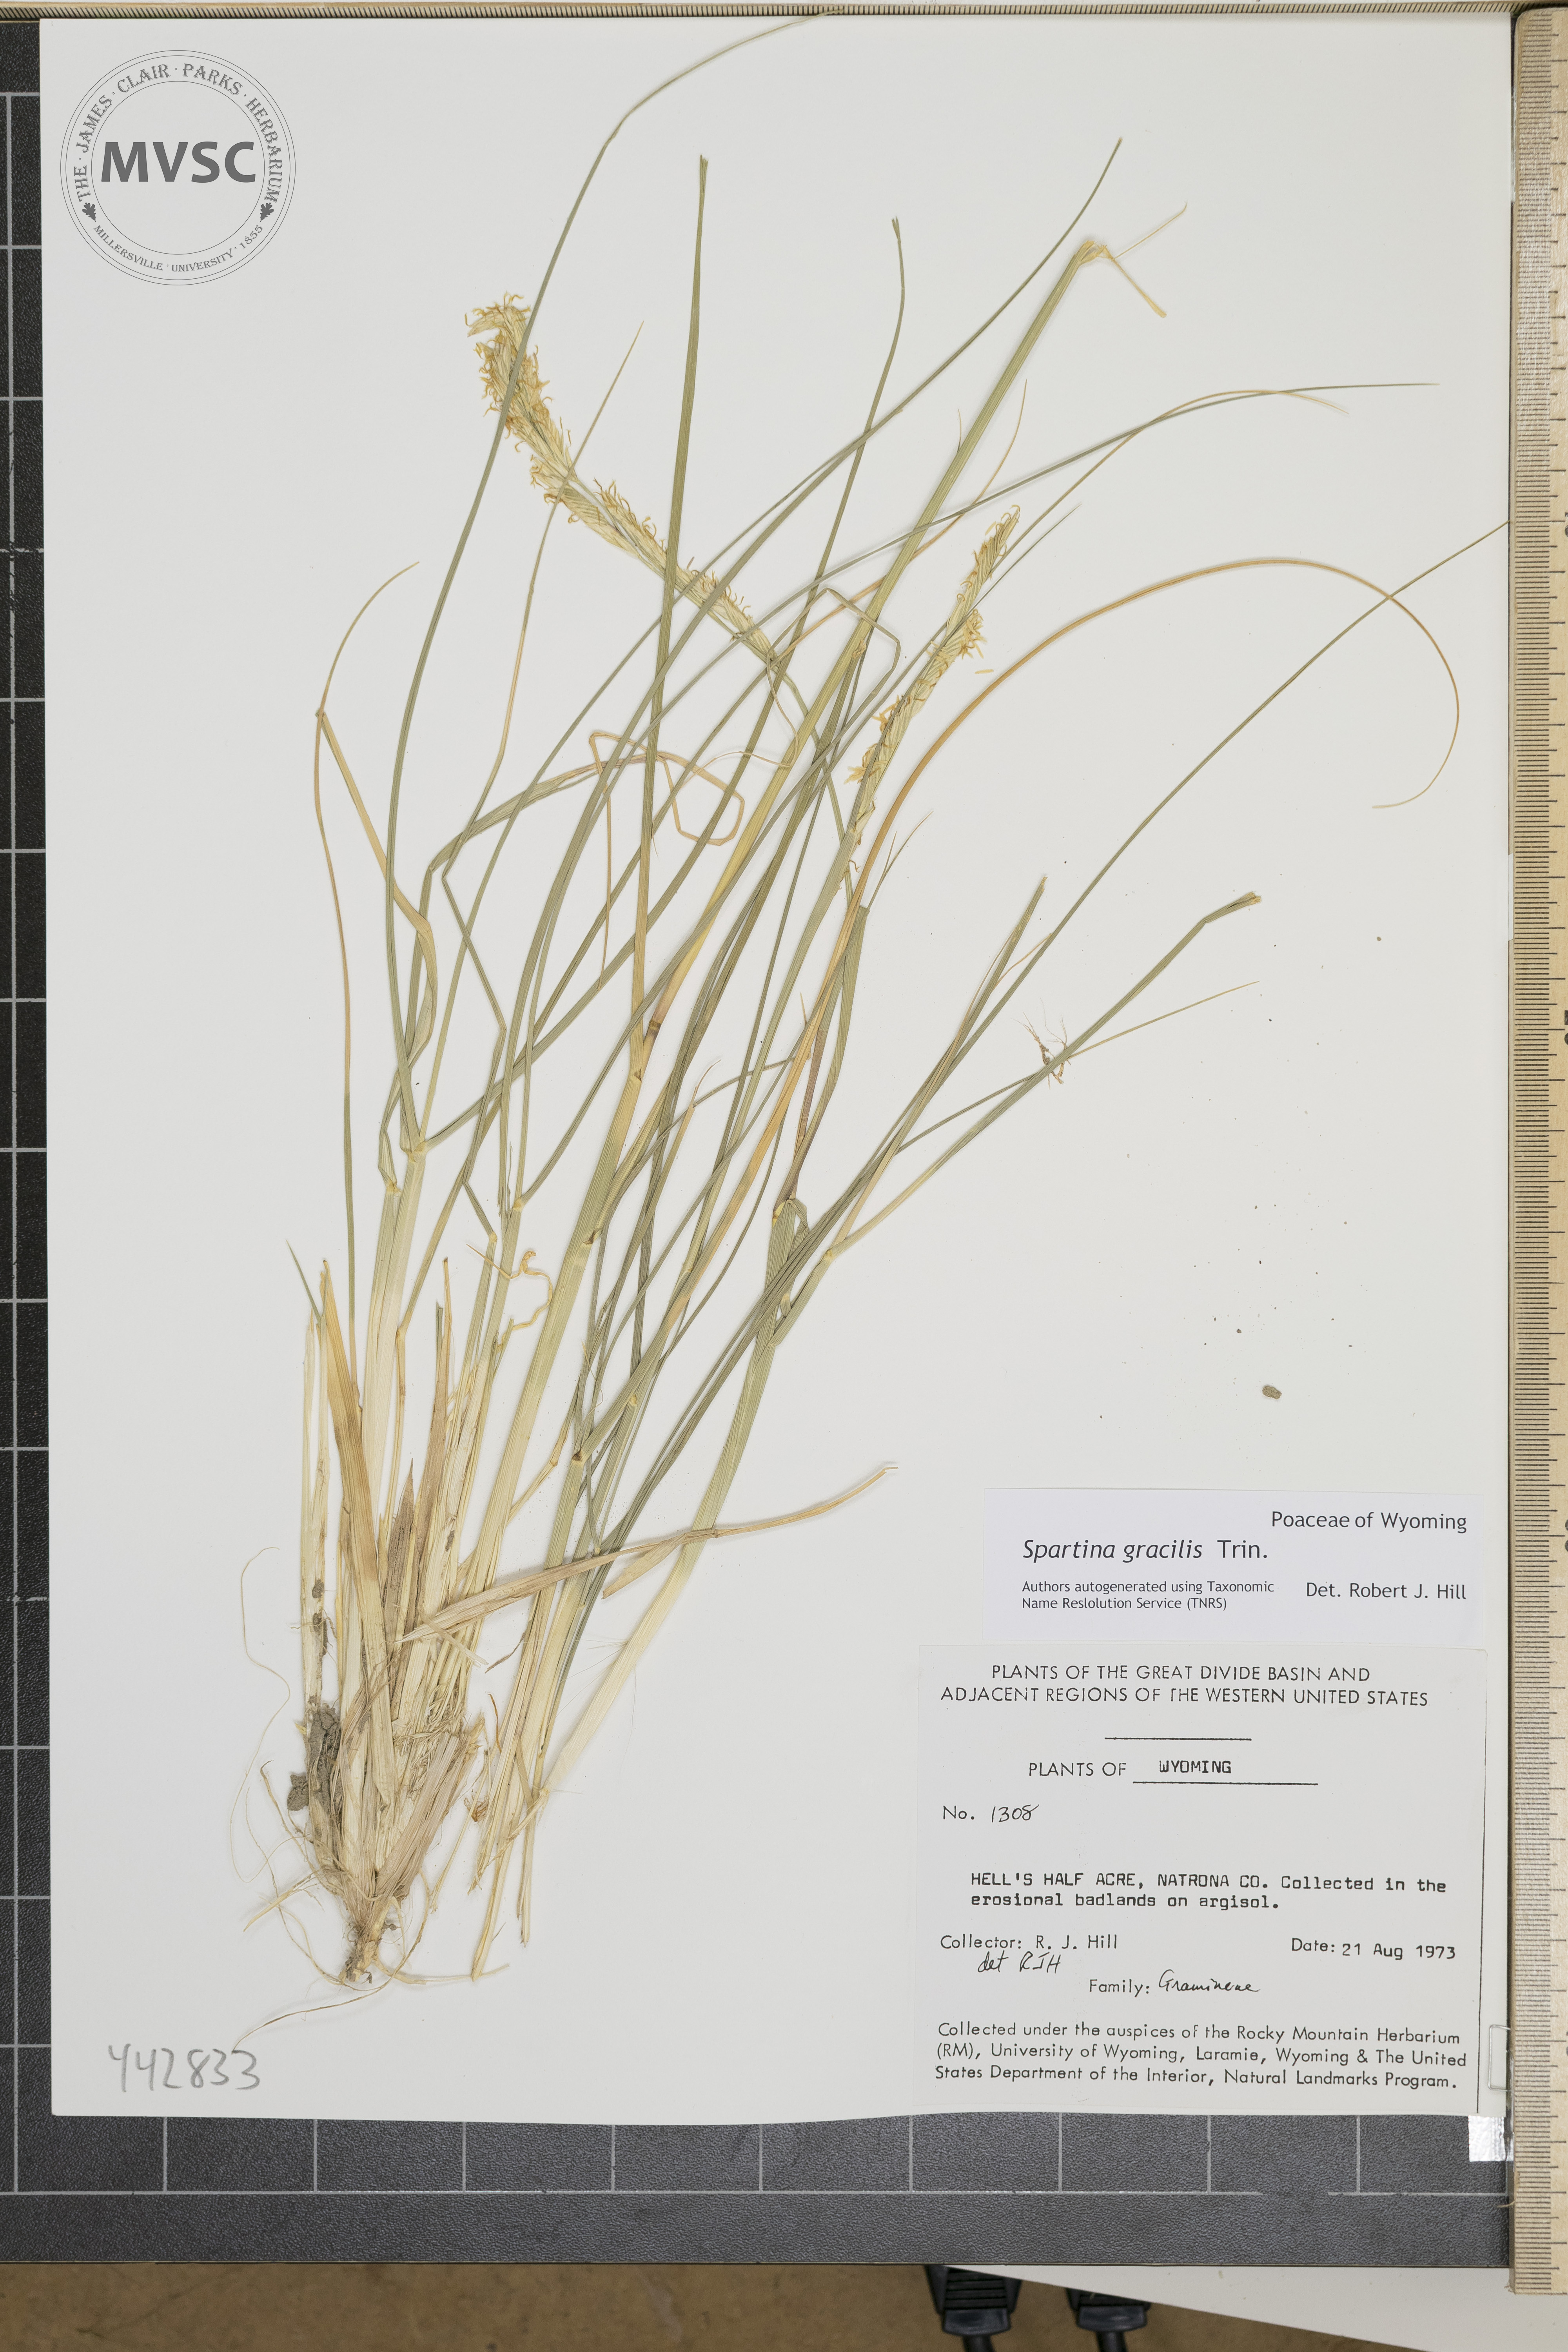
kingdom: Plantae
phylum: Tracheophyta
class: Liliopsida
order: Poales
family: Poaceae
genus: Sporobolus
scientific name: Sporobolus hookerianus
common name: Alkali cordgrass
